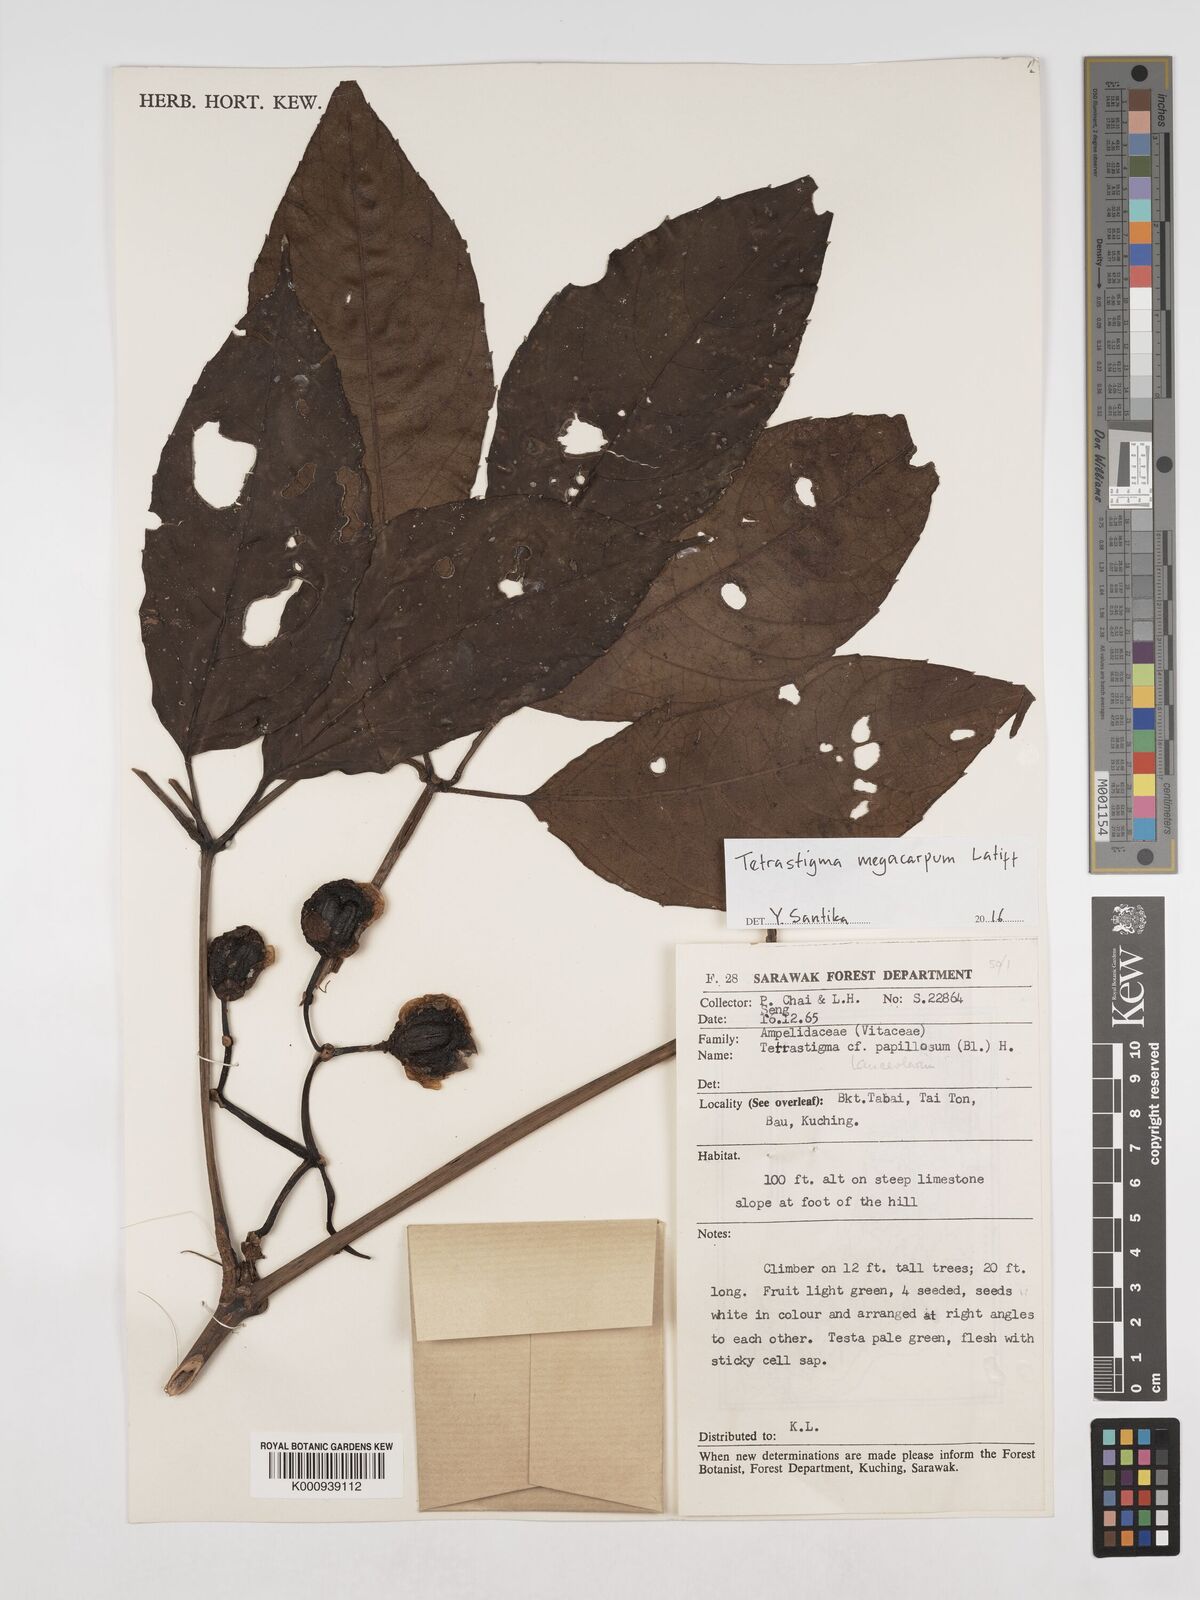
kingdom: Plantae
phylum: Tracheophyta
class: Magnoliopsida
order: Vitales
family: Vitaceae
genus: Tetrastigma
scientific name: Tetrastigma megacarpum
